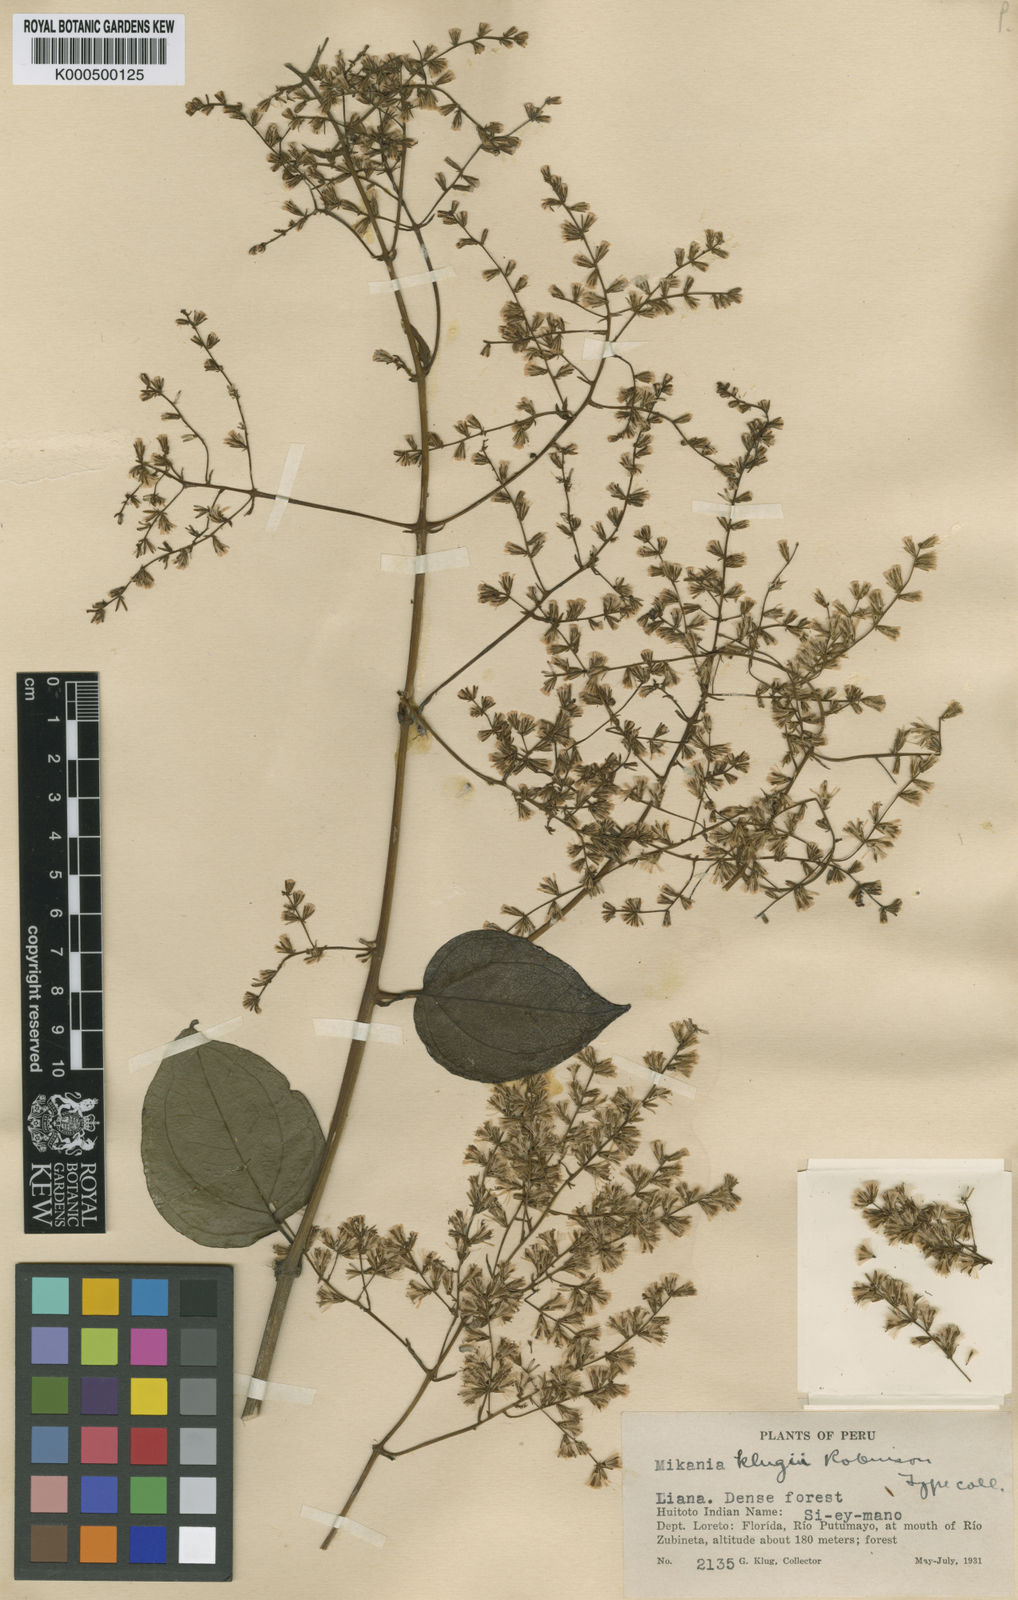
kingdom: Plantae
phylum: Tracheophyta
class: Magnoliopsida
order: Asterales
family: Asteraceae
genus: Mikania
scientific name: Mikania klugii
